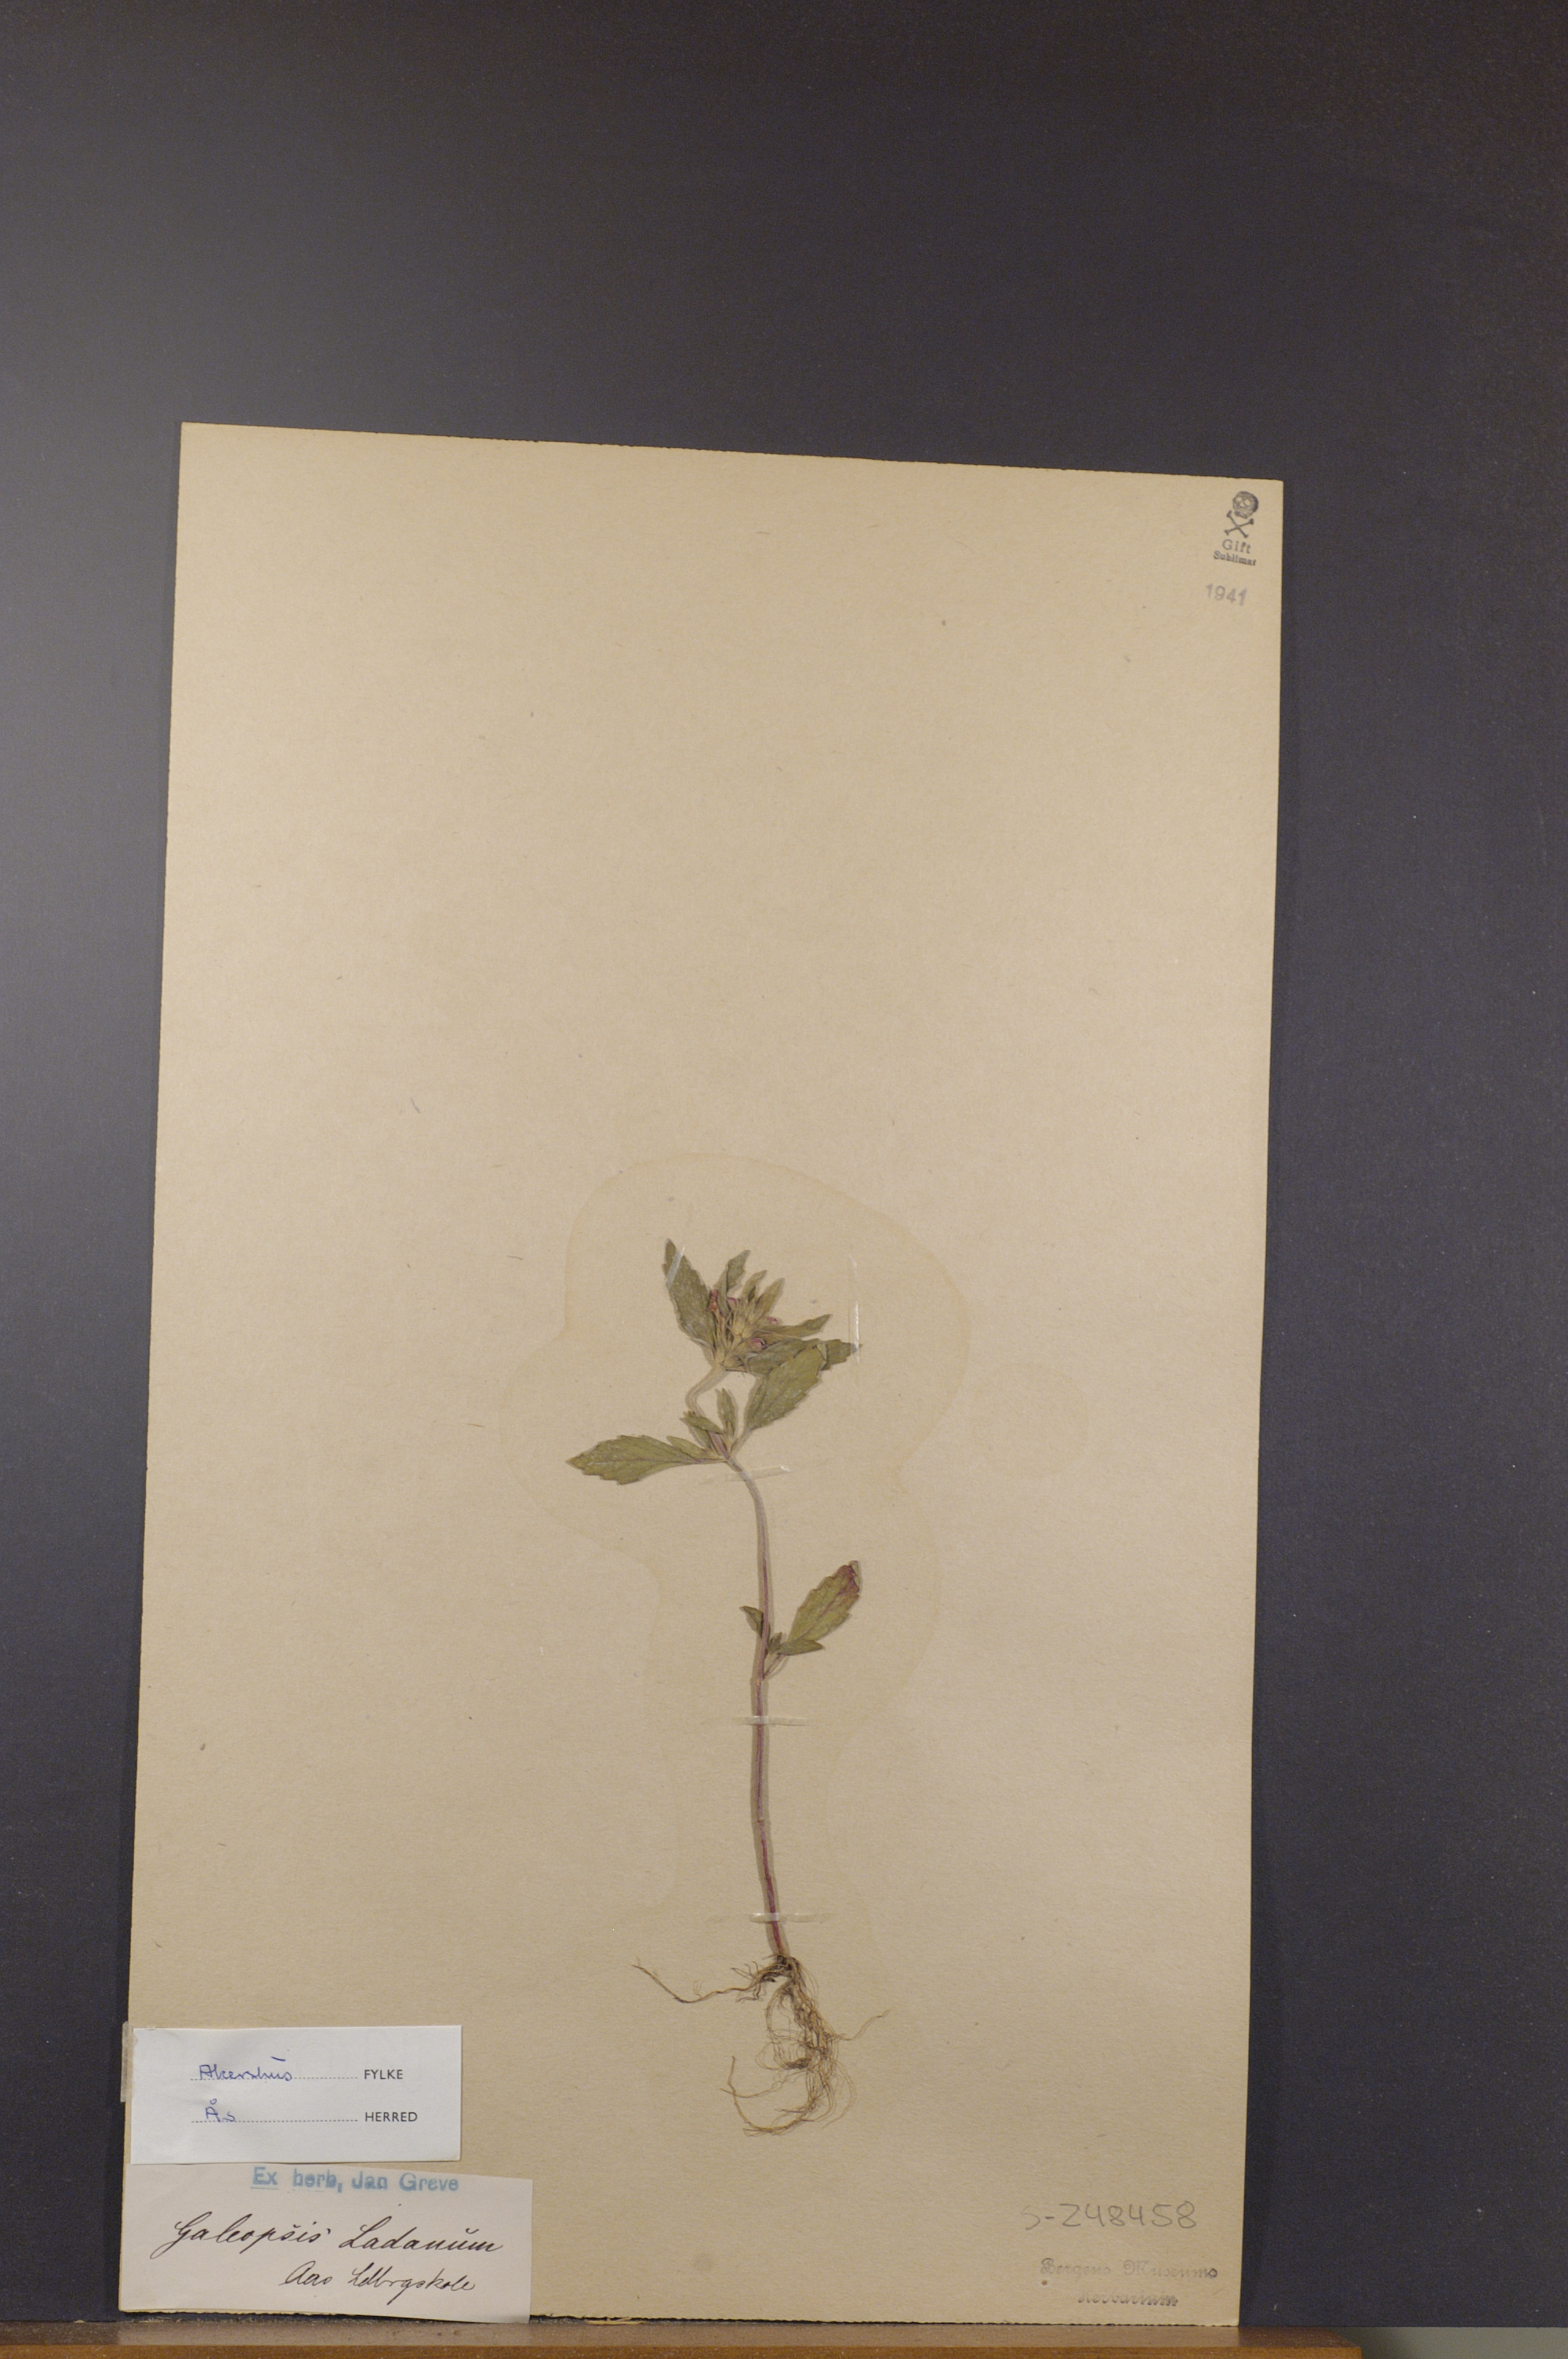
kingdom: Plantae
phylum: Tracheophyta
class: Magnoliopsida
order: Lamiales
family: Lamiaceae
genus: Galeopsis
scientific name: Galeopsis ladanum
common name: Broad-leaved hemp-nettle
